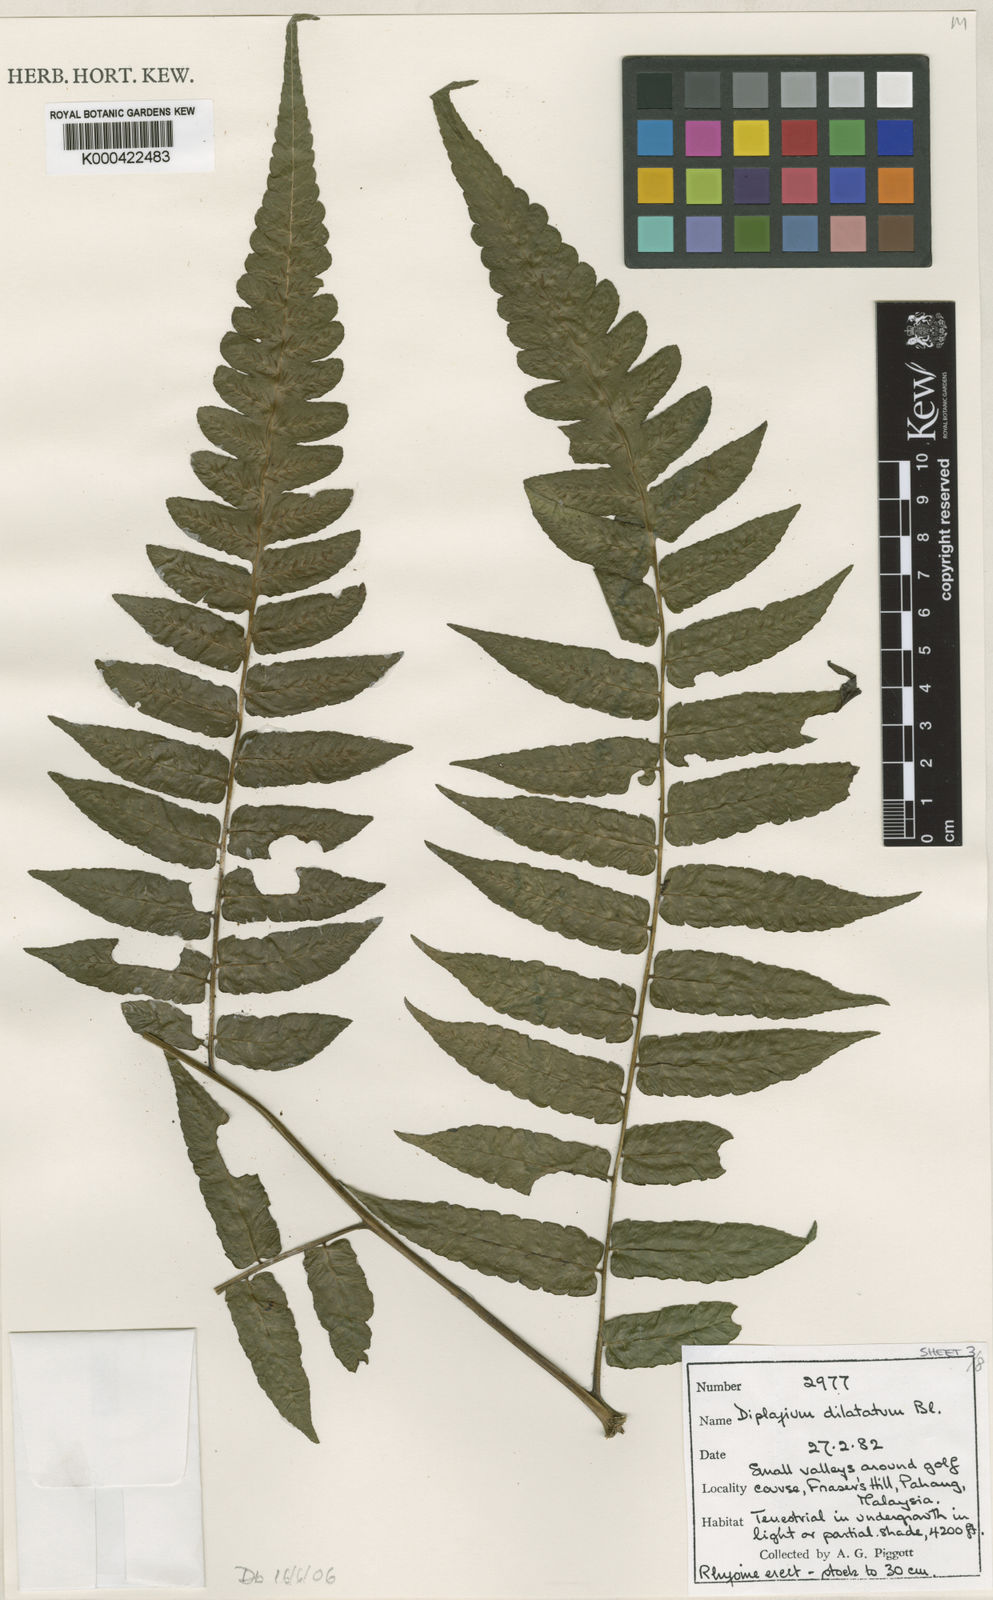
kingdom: Plantae
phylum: Tracheophyta
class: Polypodiopsida
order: Polypodiales
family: Athyriaceae
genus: Diplazium
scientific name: Diplazium dilatatum
